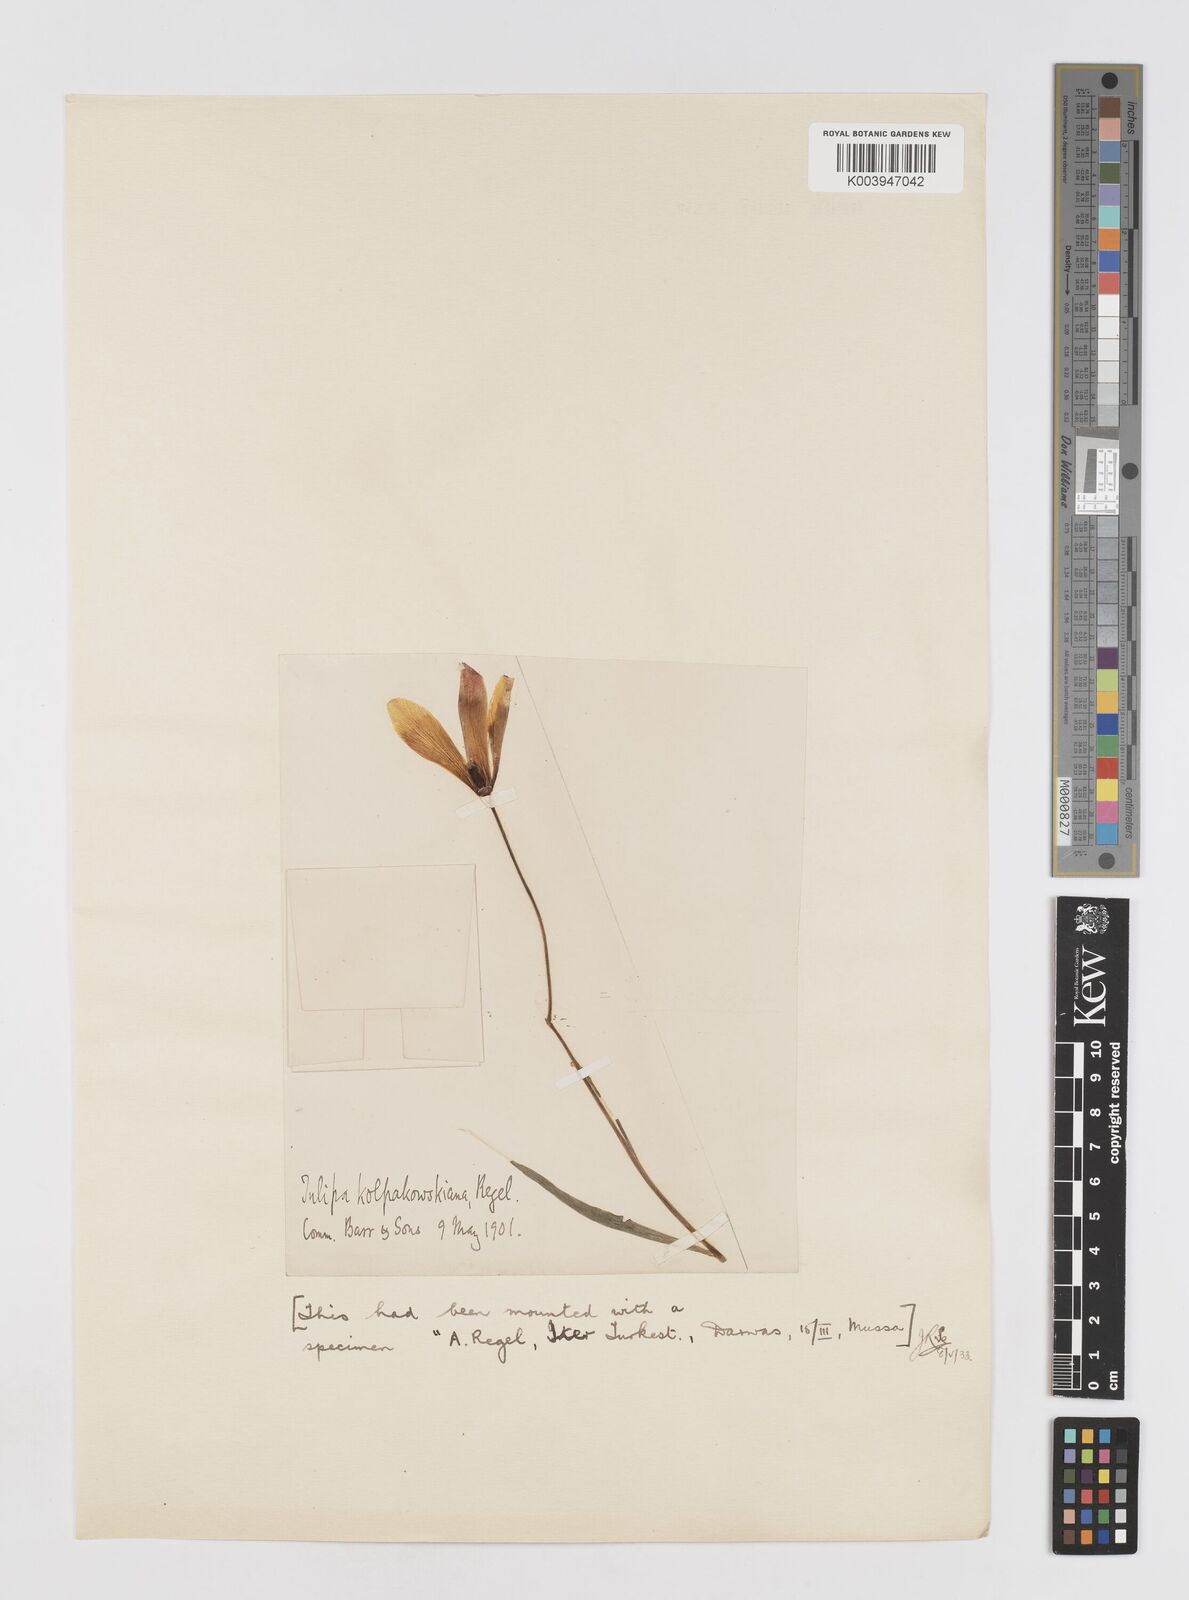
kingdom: Plantae
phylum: Tracheophyta
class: Liliopsida
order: Liliales
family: Liliaceae
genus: Tulipa
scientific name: Tulipa clusiana
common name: Lady tulip
